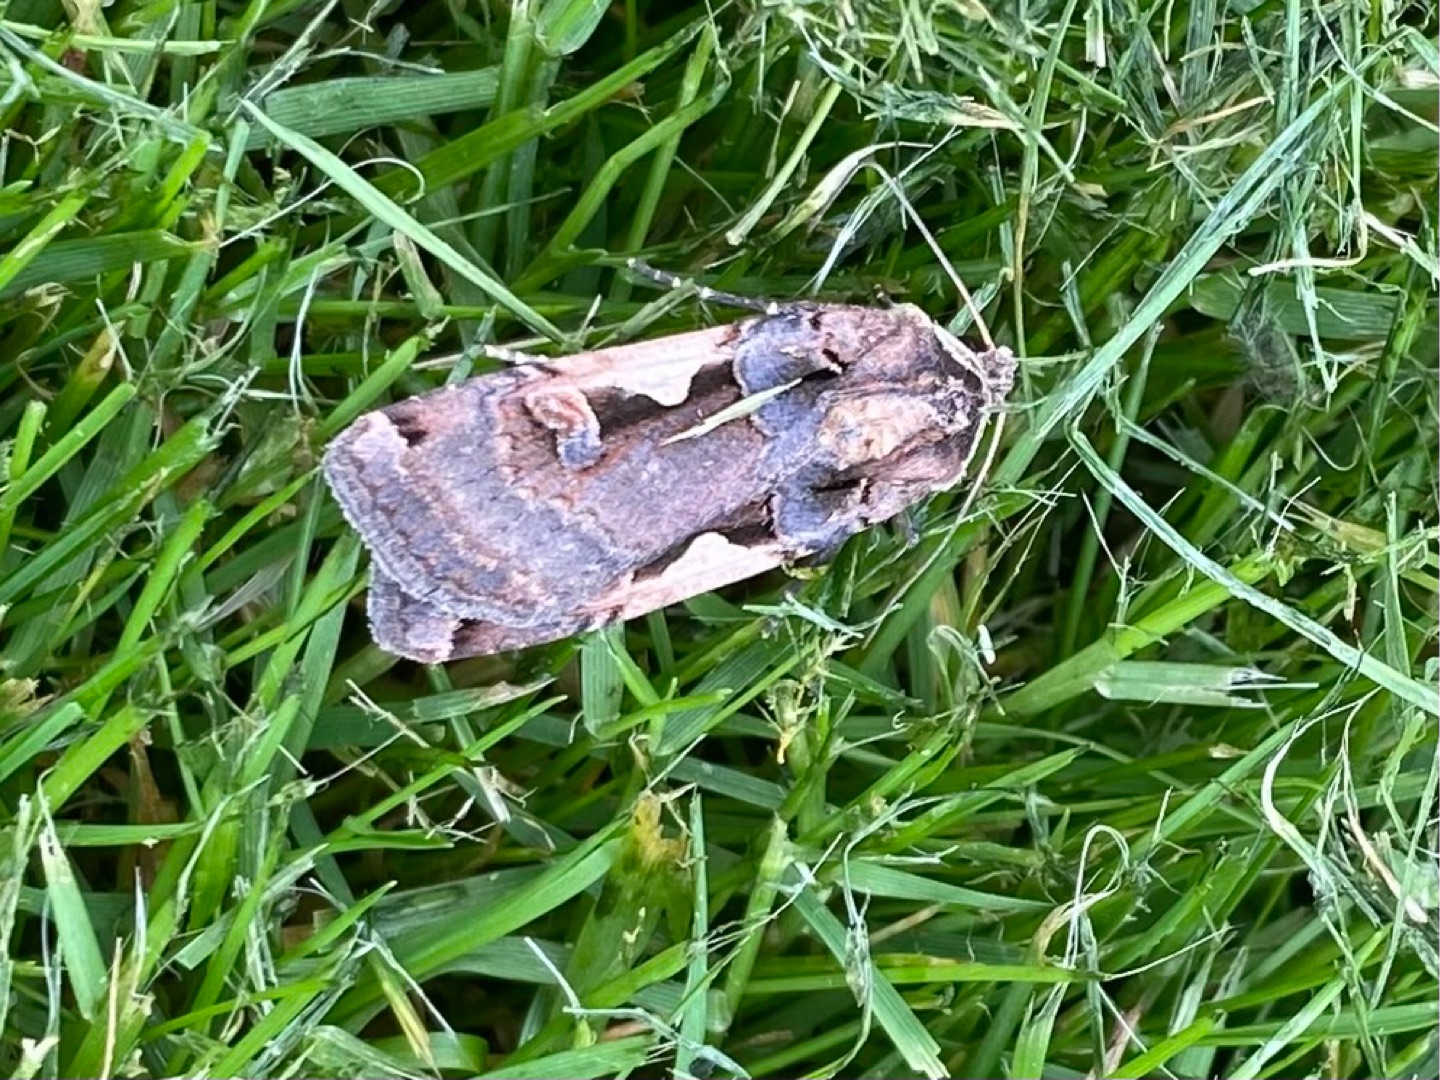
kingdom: Animalia
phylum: Arthropoda
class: Insecta
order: Lepidoptera
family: Noctuidae
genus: Xestia
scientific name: Xestia c-nigrum
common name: Det sorte c
